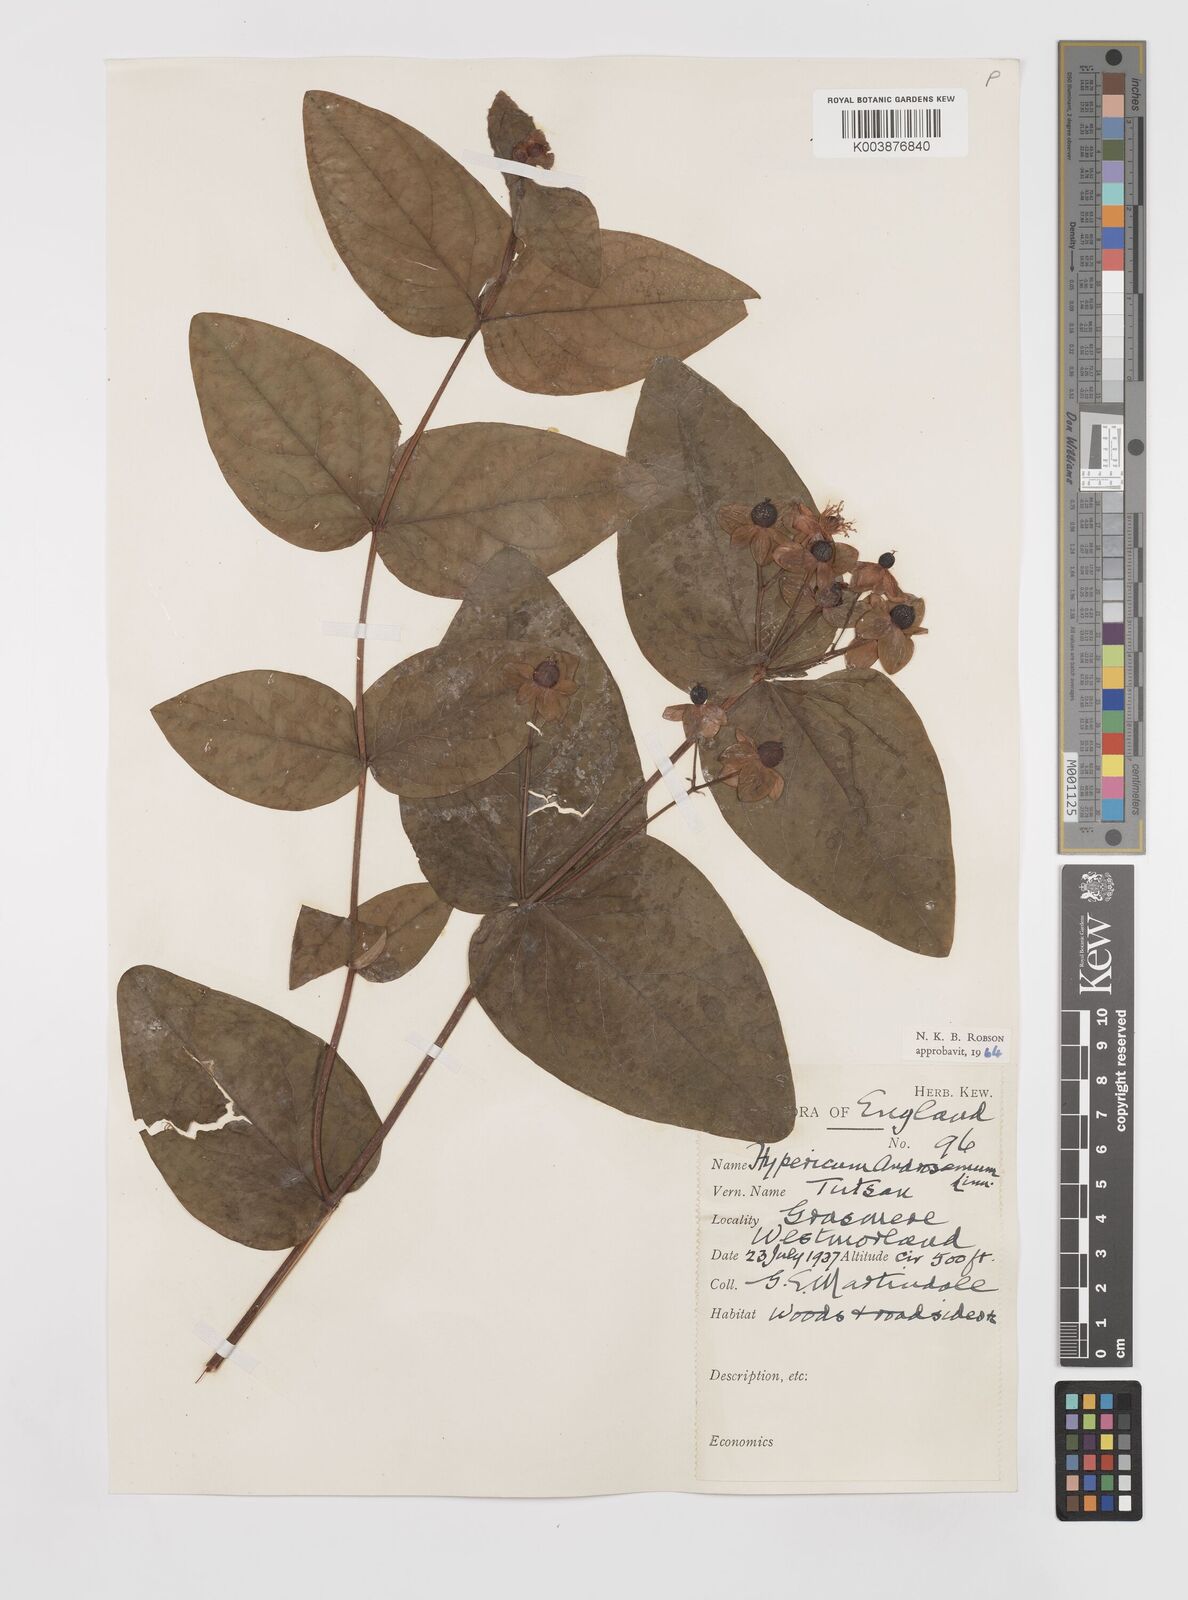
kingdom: Plantae
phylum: Tracheophyta
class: Magnoliopsida
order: Malpighiales
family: Hypericaceae
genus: Hypericum
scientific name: Hypericum androsaemum
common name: Sweet-amber
